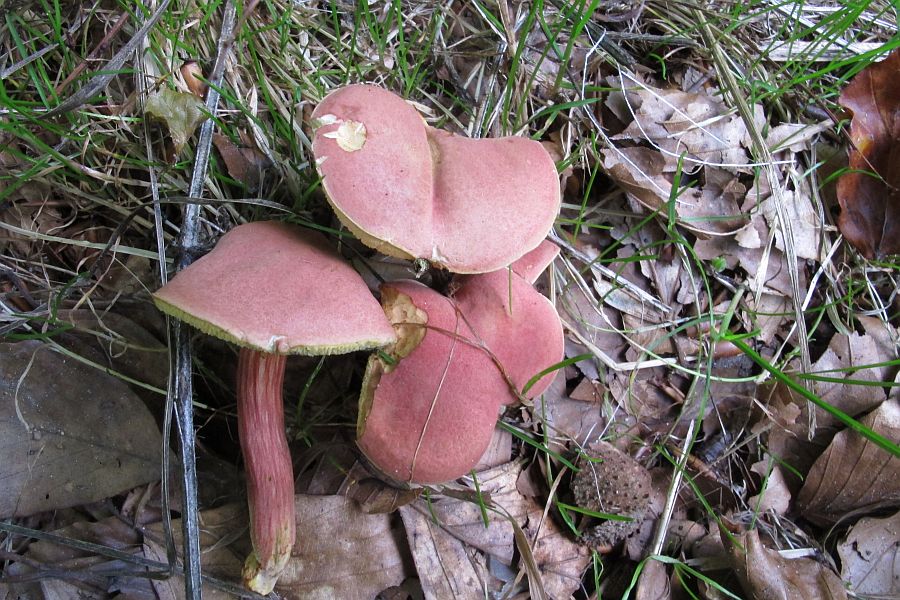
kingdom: Fungi
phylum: Basidiomycota
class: Agaricomycetes
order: Boletales
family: Boletaceae
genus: Hortiboletus
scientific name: Hortiboletus rubellus
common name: blodrød rørhat
